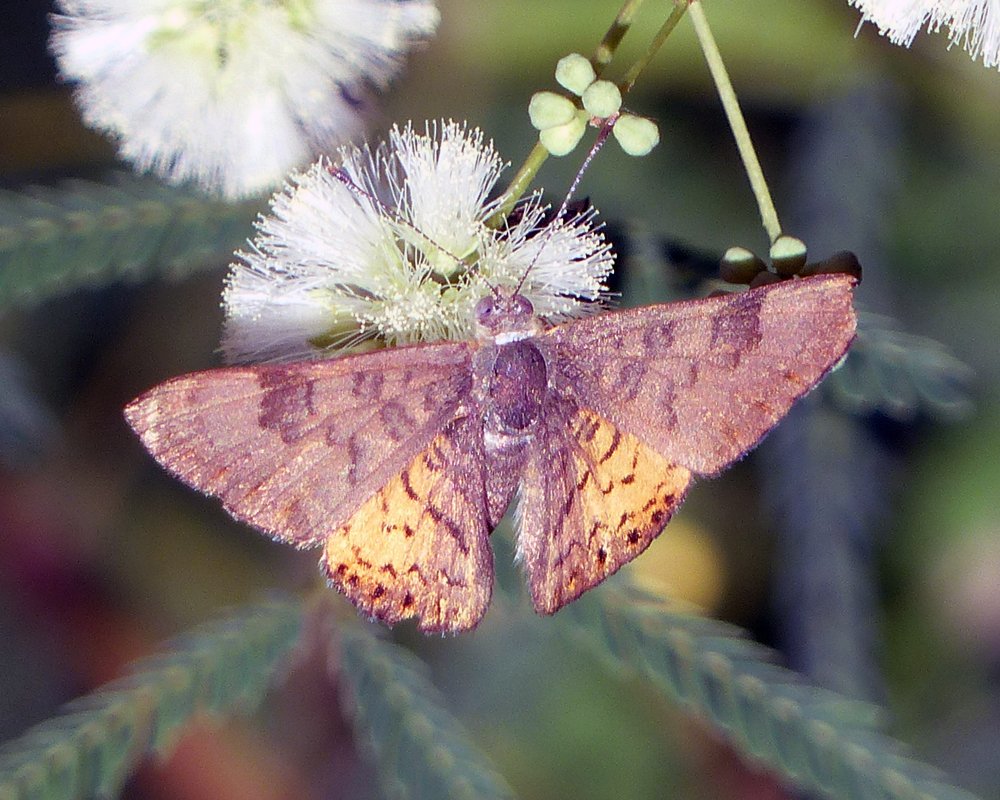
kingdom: Animalia
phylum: Arthropoda
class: Insecta
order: Lepidoptera
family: Lycaenidae
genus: Emesis
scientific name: Emesis zela
